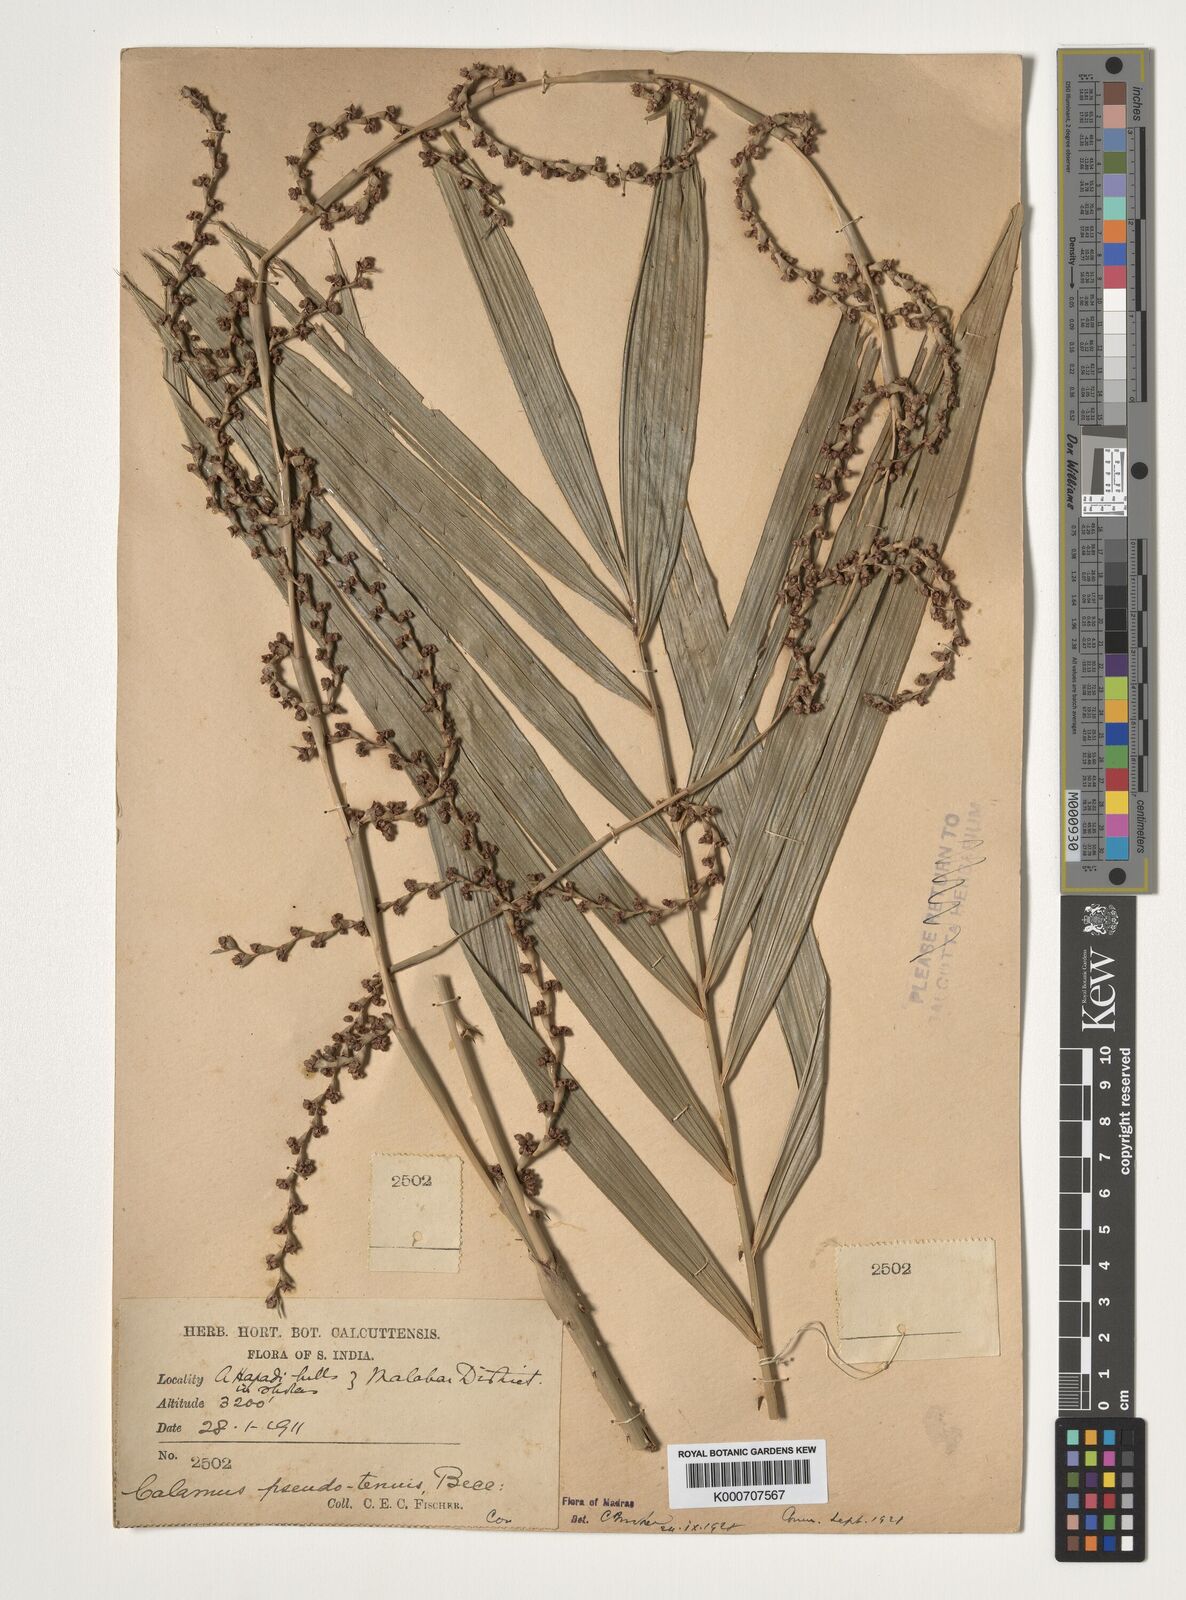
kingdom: Plantae
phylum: Tracheophyta
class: Liliopsida
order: Arecales
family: Arecaceae
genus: Calamus
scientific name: Calamus pseudotenuis
